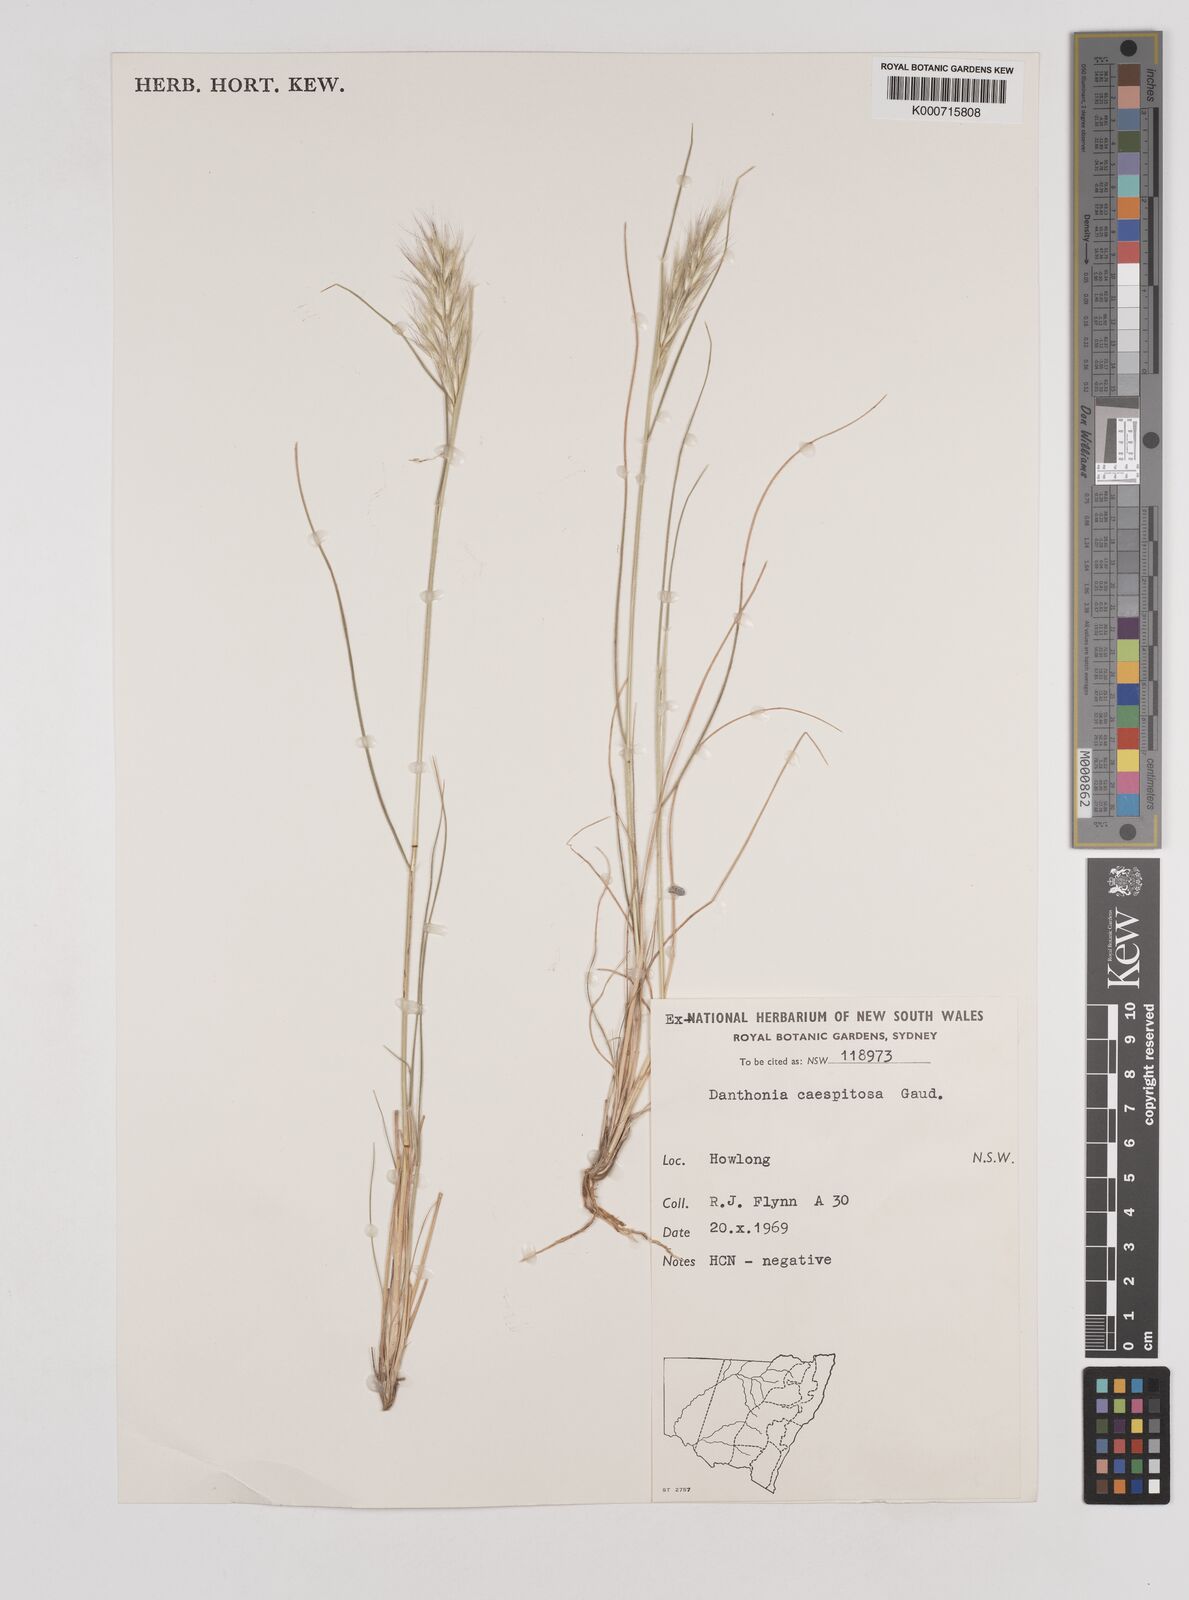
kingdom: Plantae
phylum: Tracheophyta
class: Liliopsida
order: Poales
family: Poaceae
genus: Rytidosperma
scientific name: Rytidosperma caespitosum
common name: Tufted wallaby grass
